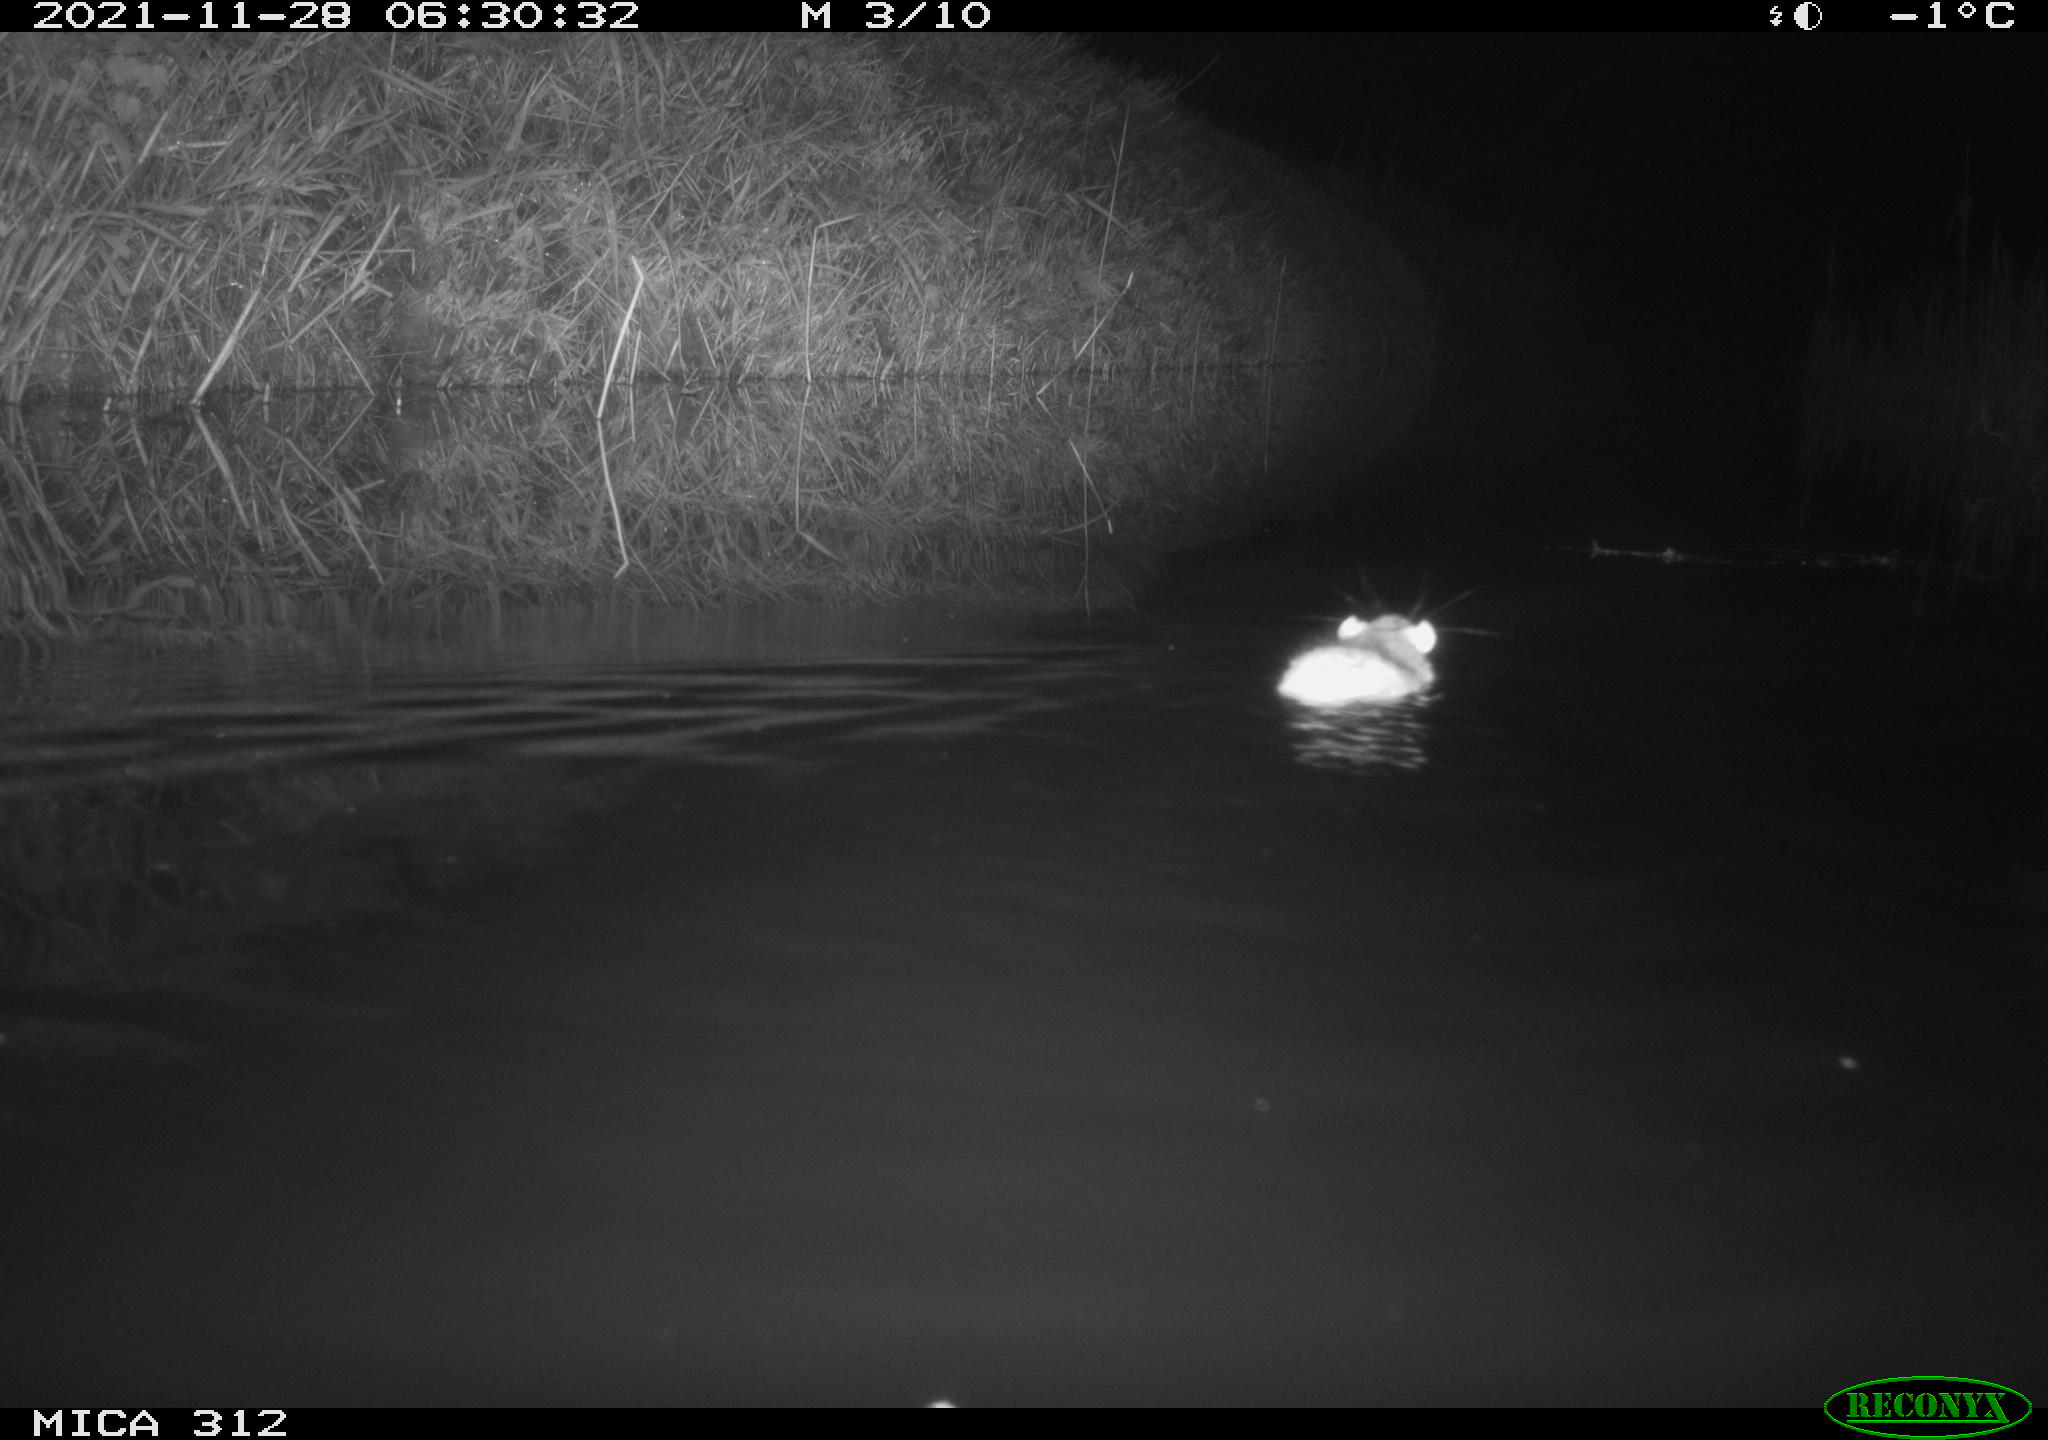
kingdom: Animalia
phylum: Chordata
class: Mammalia
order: Rodentia
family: Muridae
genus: Rattus
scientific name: Rattus norvegicus
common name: Brown rat
